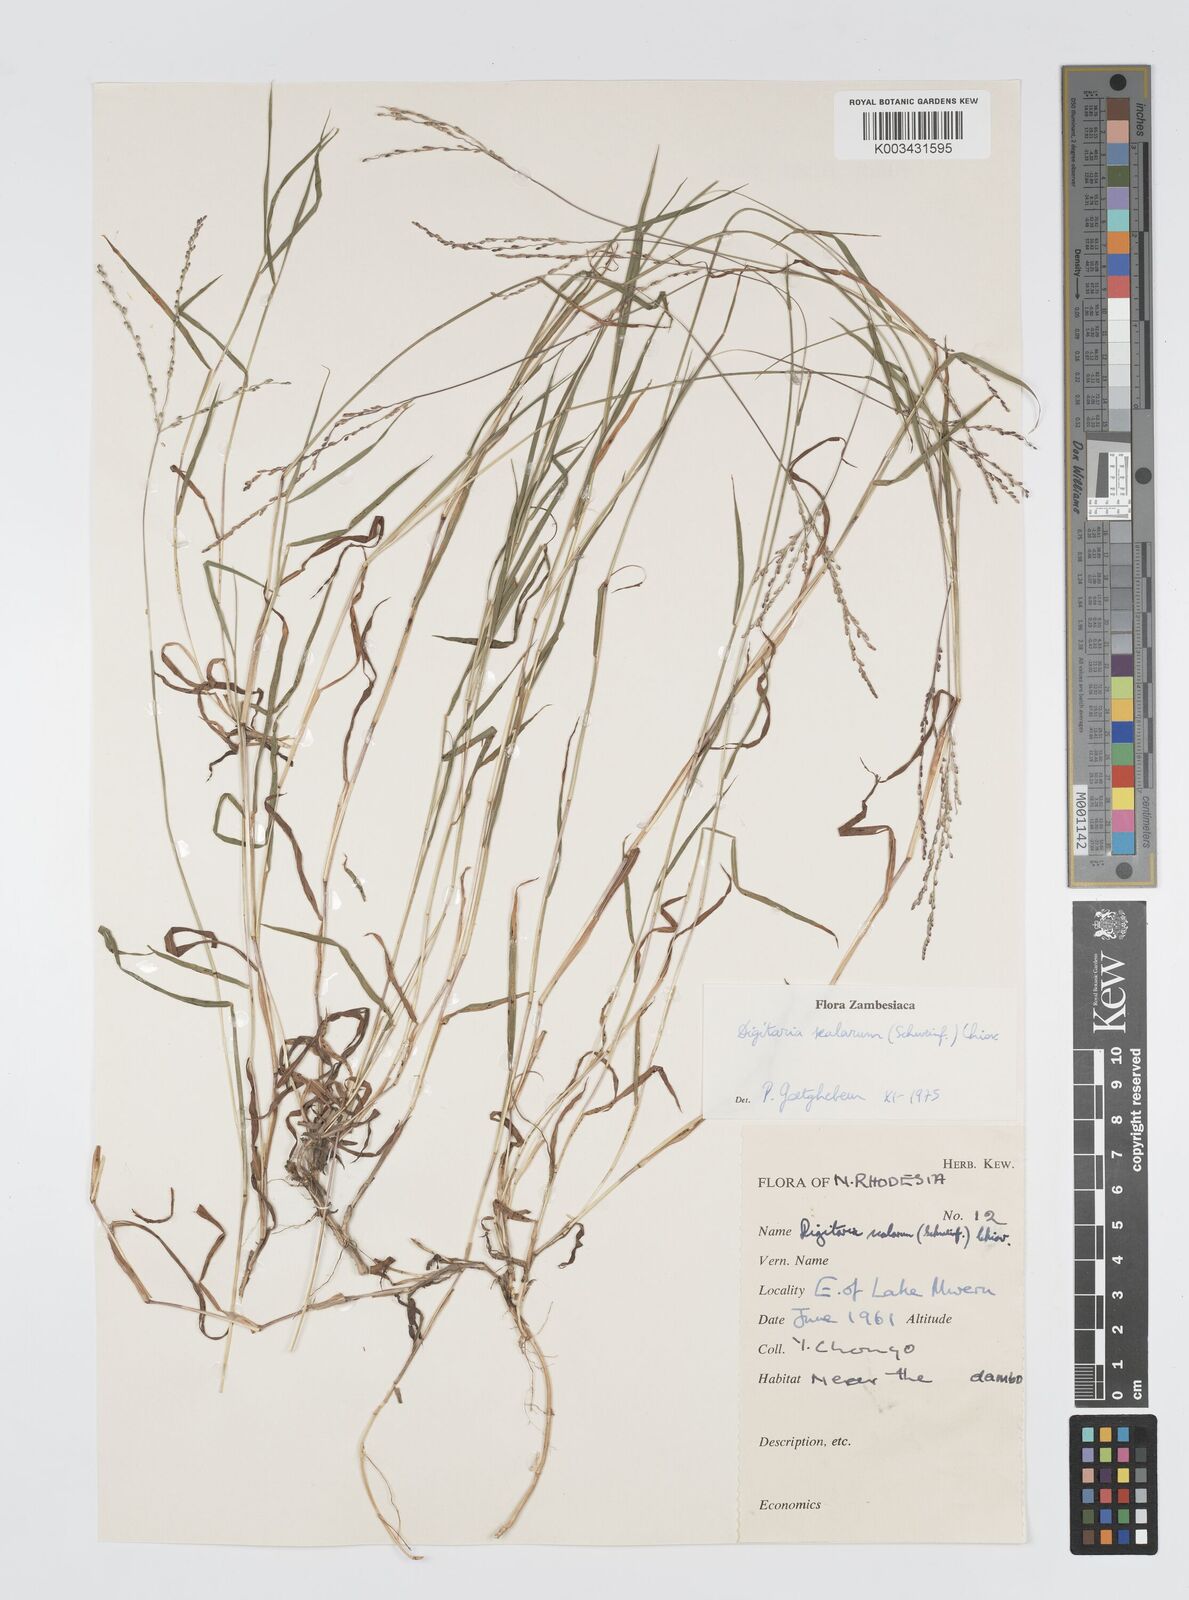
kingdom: Plantae
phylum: Tracheophyta
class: Liliopsida
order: Poales
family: Poaceae
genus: Digitaria
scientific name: Digitaria abyssinica
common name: African couchgrass
